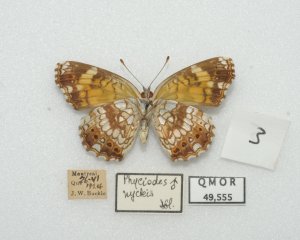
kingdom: Animalia
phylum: Arthropoda
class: Insecta
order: Lepidoptera
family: Nymphalidae
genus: Chlosyne
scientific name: Chlosyne nycteis
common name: Silvery Checkerspot
